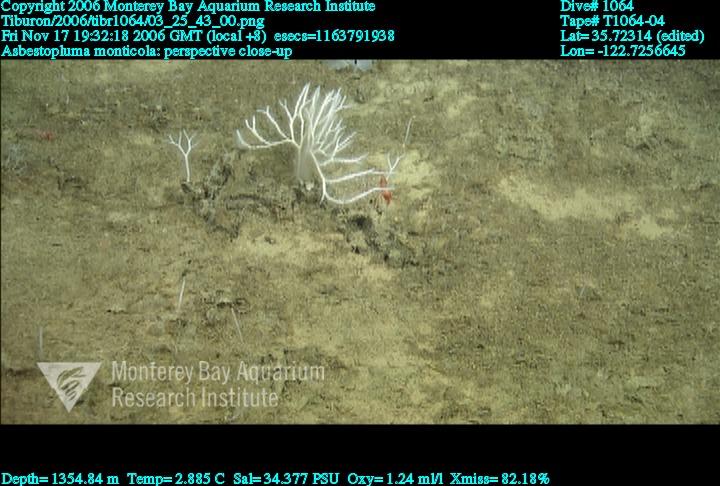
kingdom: Animalia
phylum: Porifera
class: Demospongiae
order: Poecilosclerida
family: Cladorhizidae
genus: Asbestopluma
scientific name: Asbestopluma monticola
